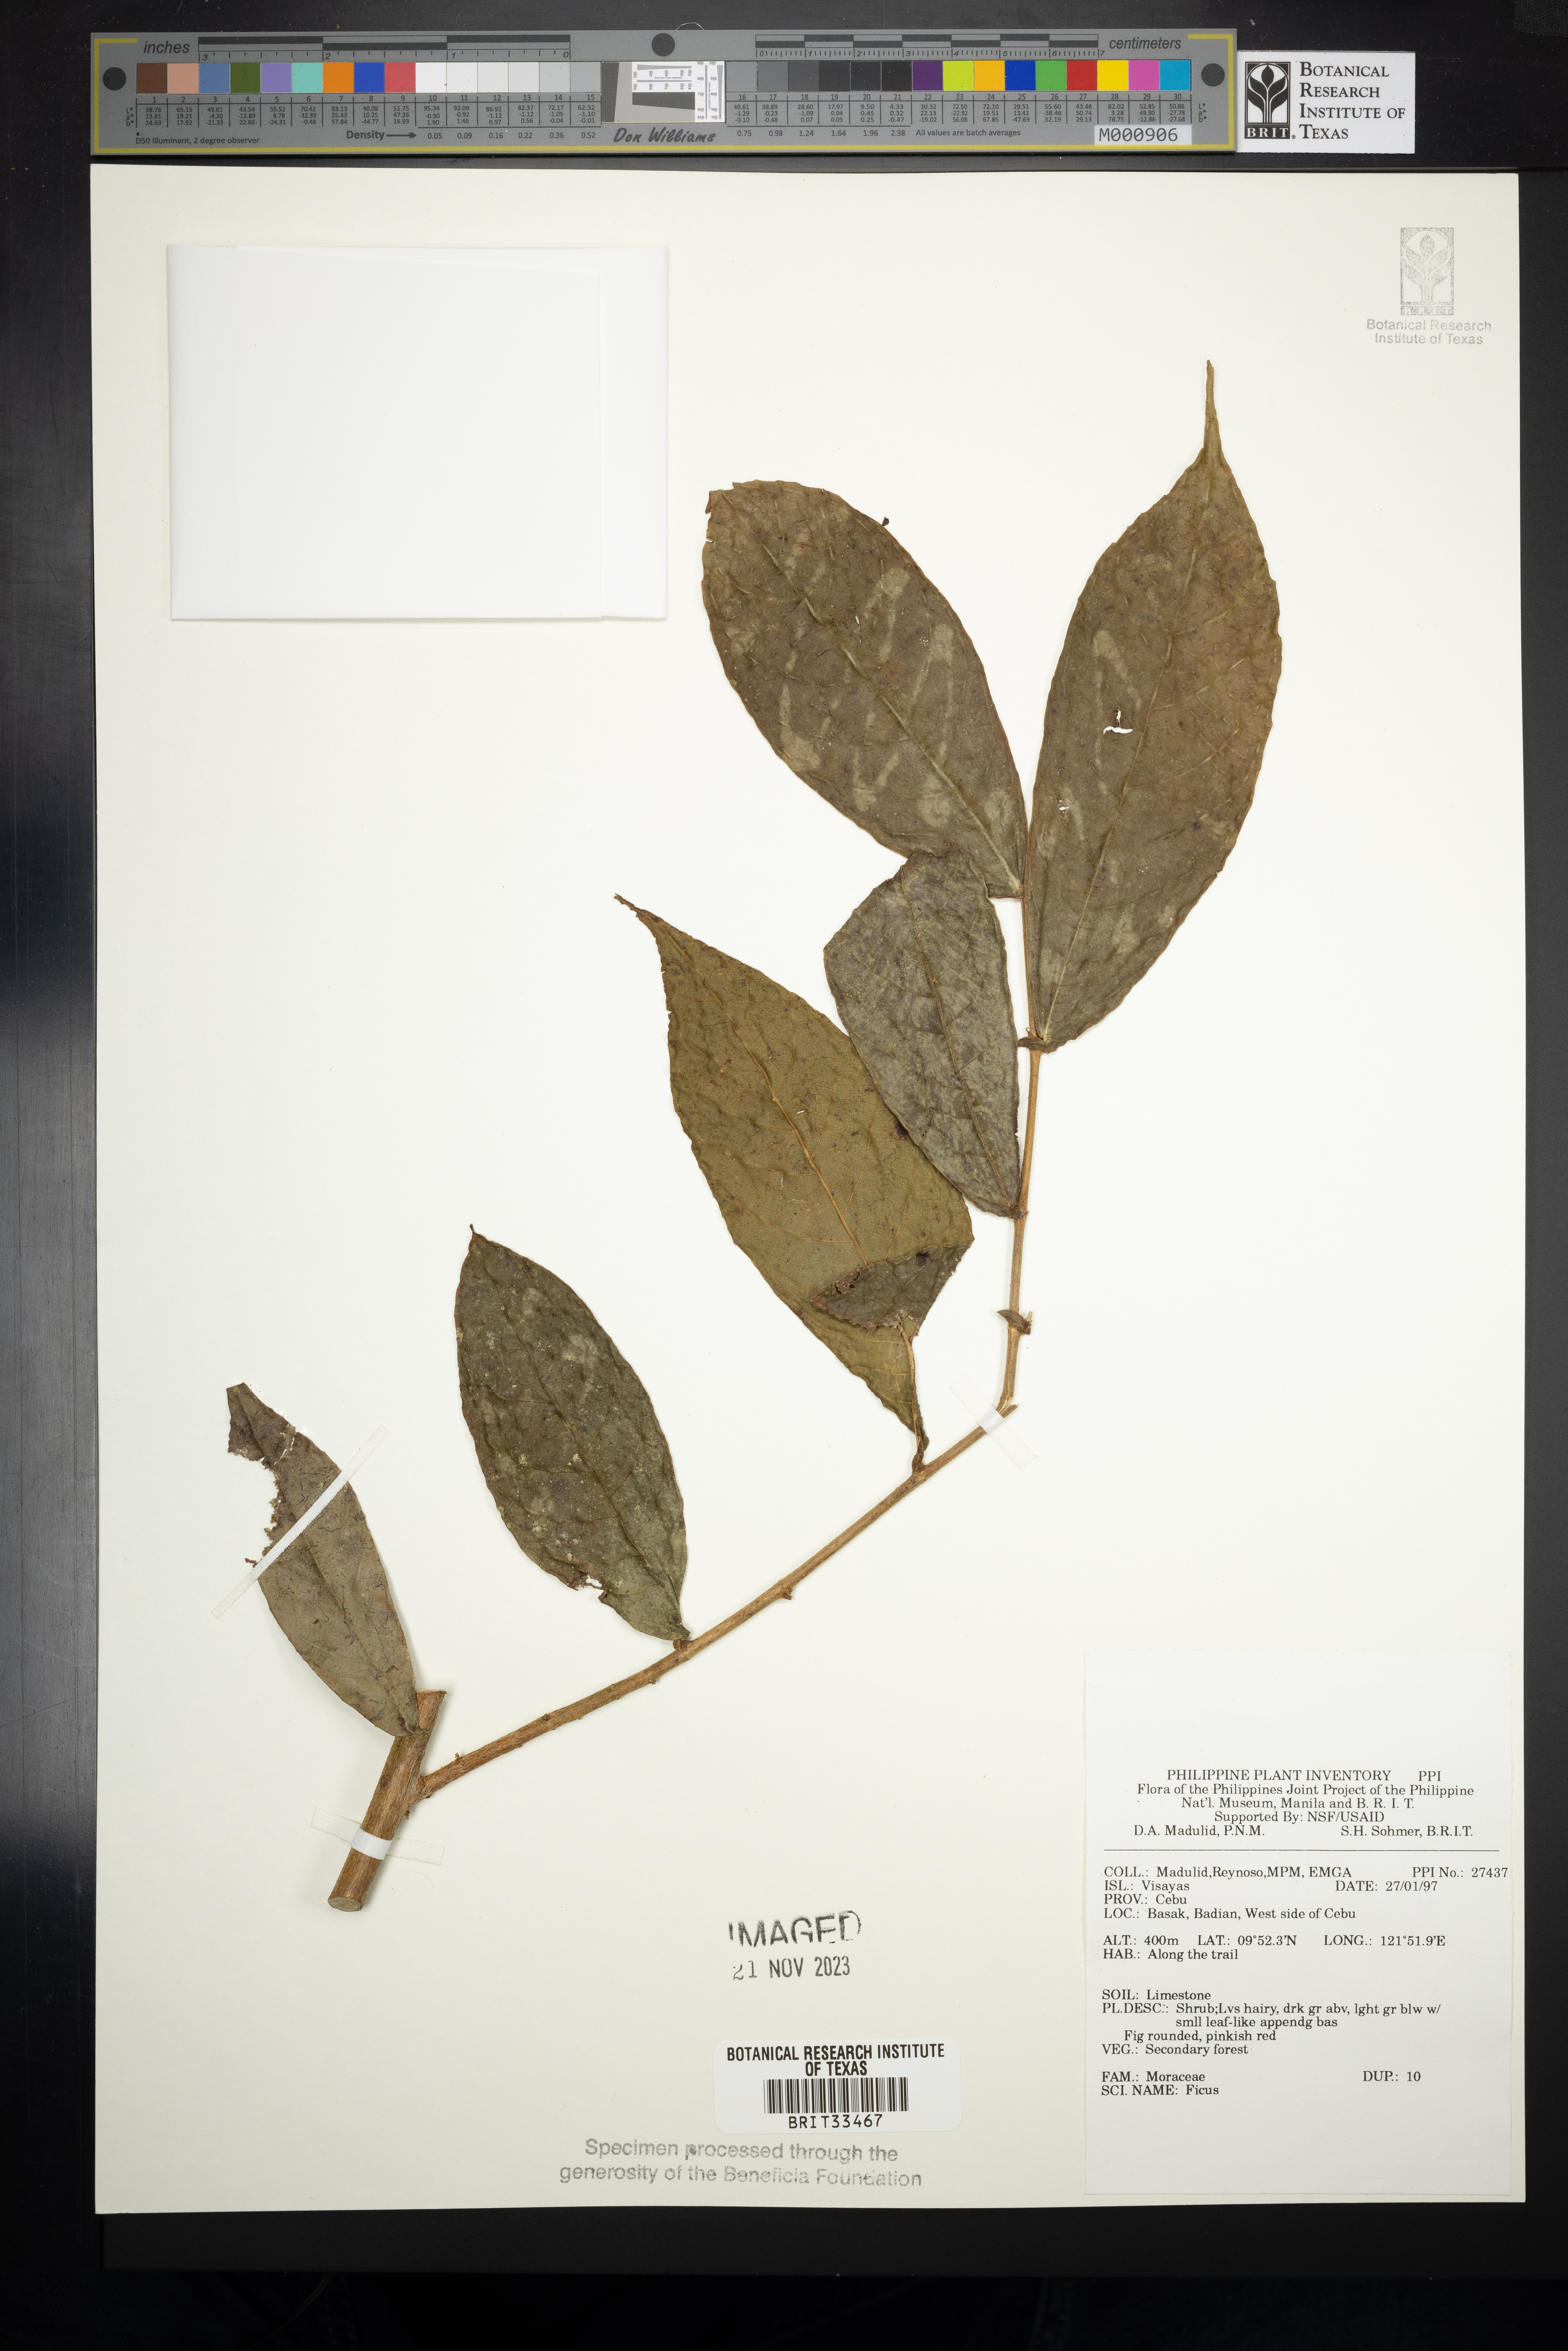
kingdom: Plantae
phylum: Tracheophyta
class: Magnoliopsida
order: Rosales
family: Moraceae
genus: Ficus
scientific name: Ficus
